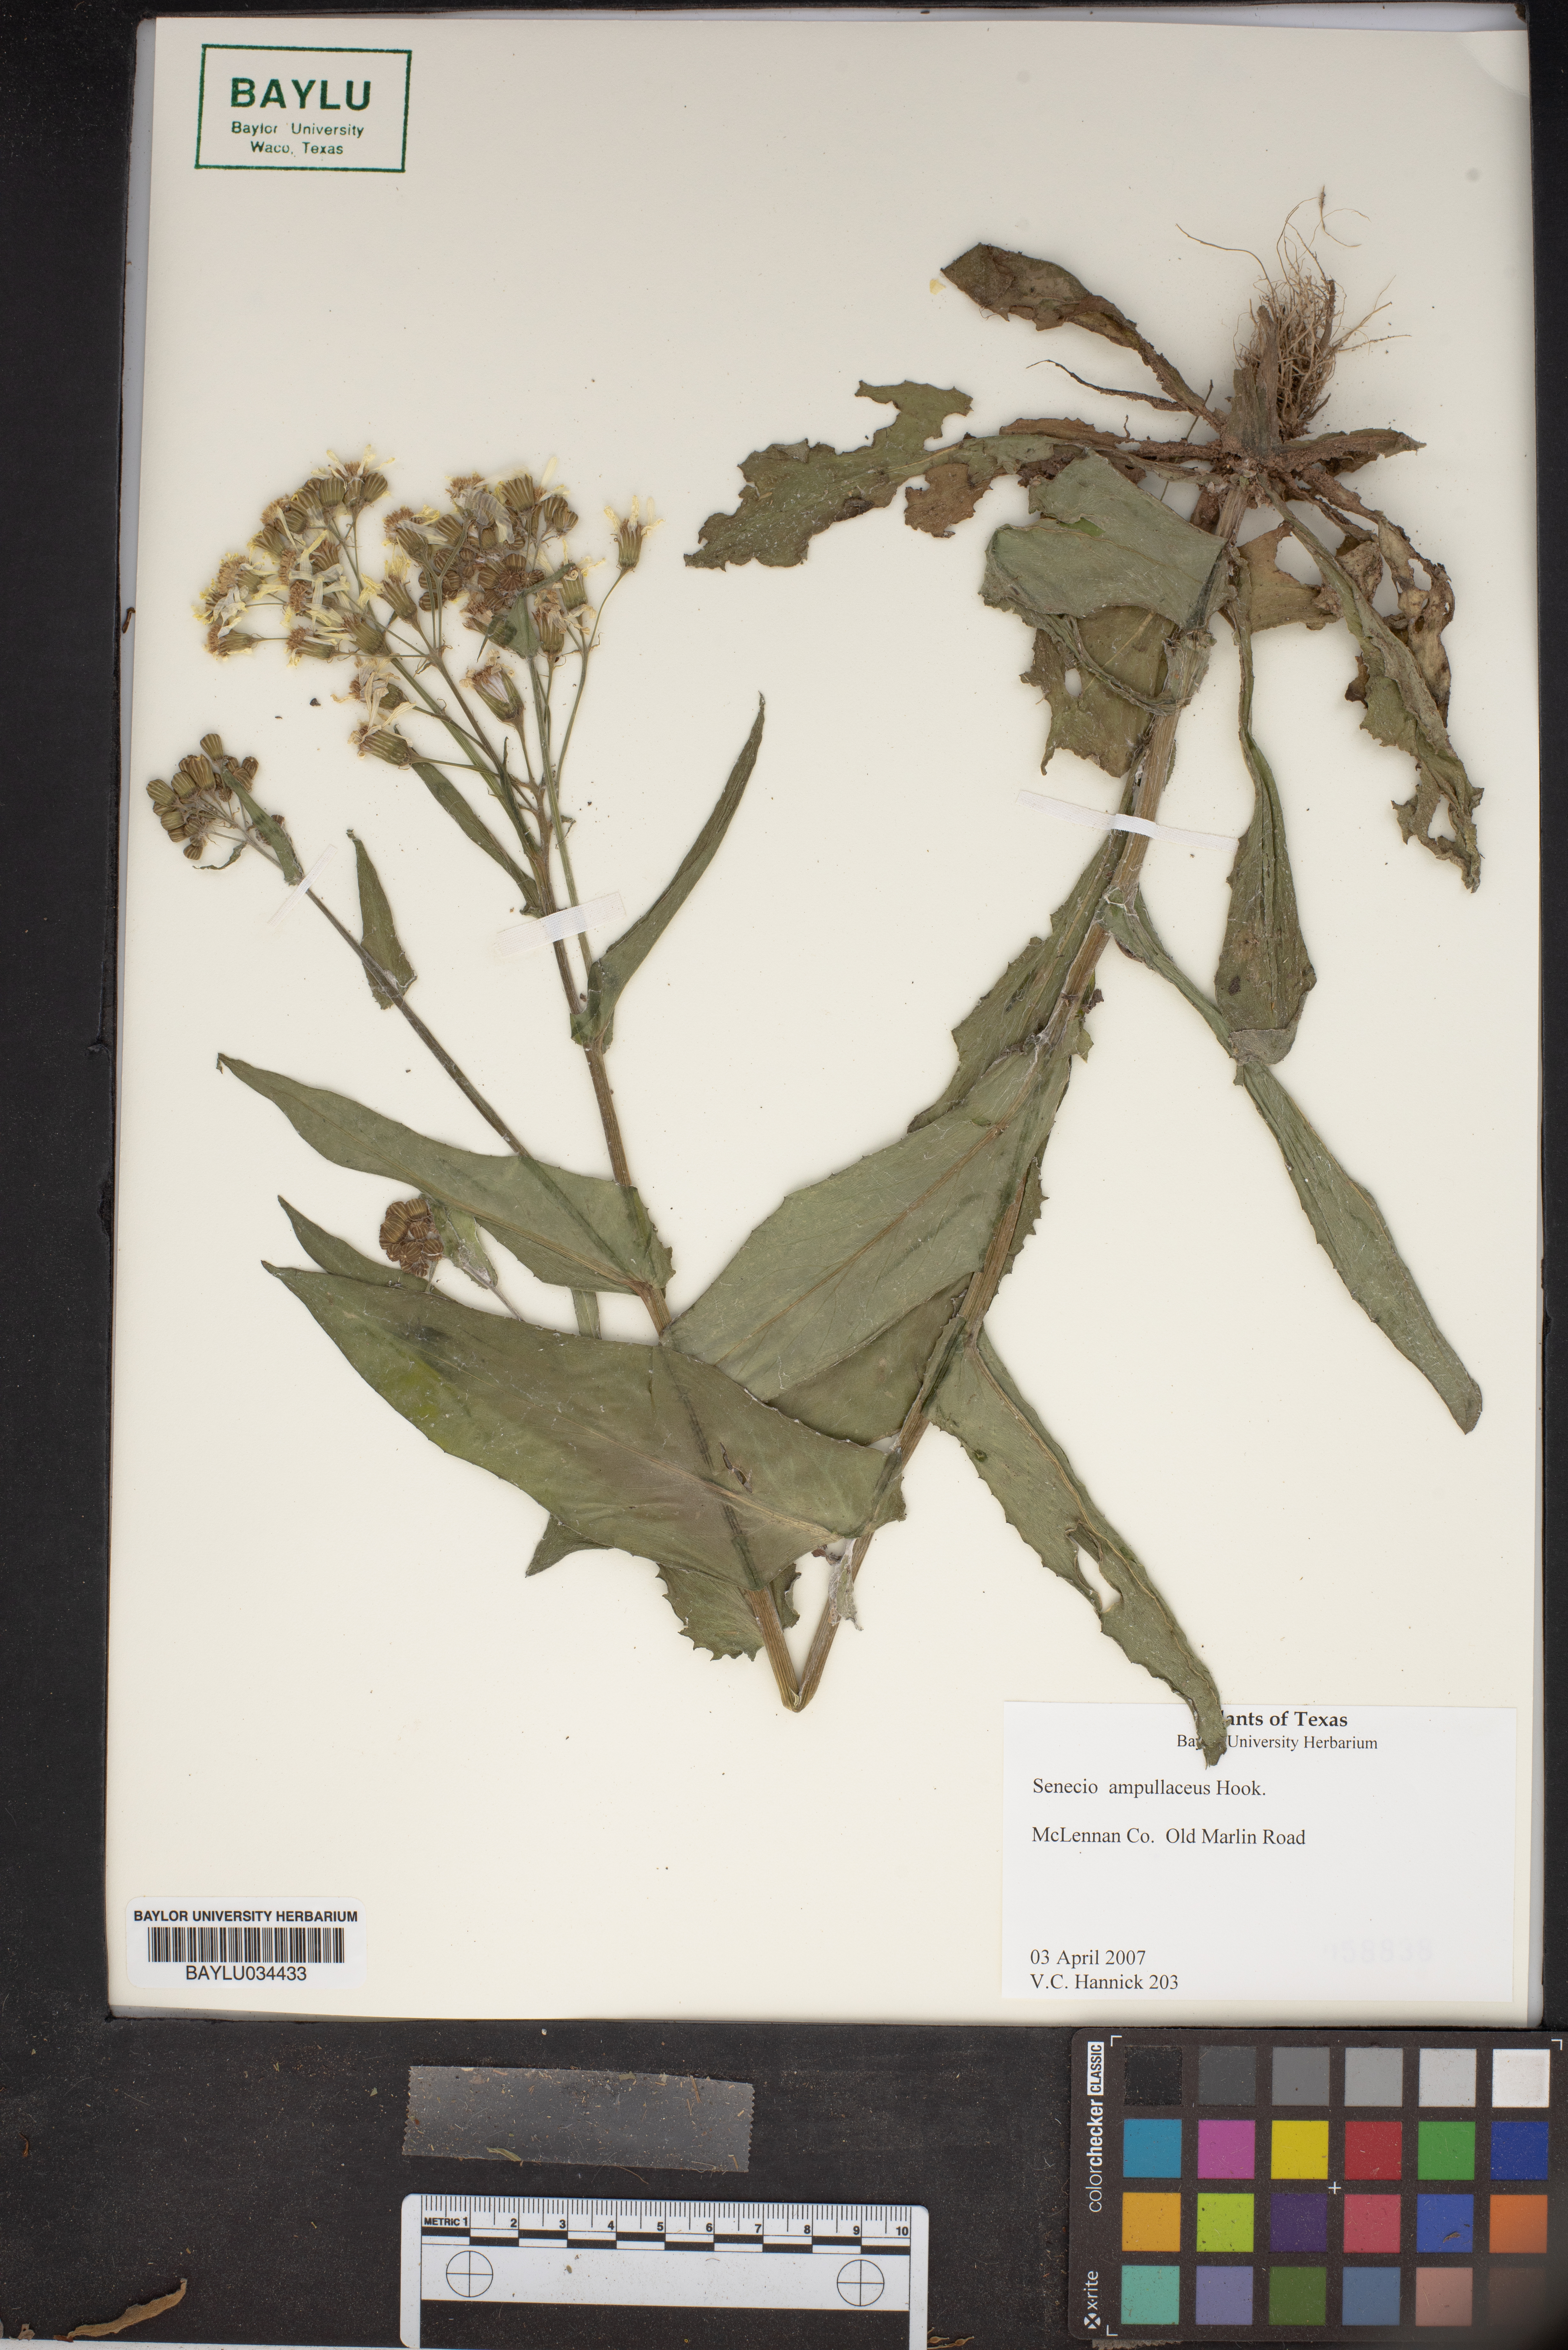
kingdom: Plantae
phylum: Tracheophyta
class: Magnoliopsida
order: Asterales
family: Asteraceae
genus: Senecio
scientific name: Senecio ampullaceus
